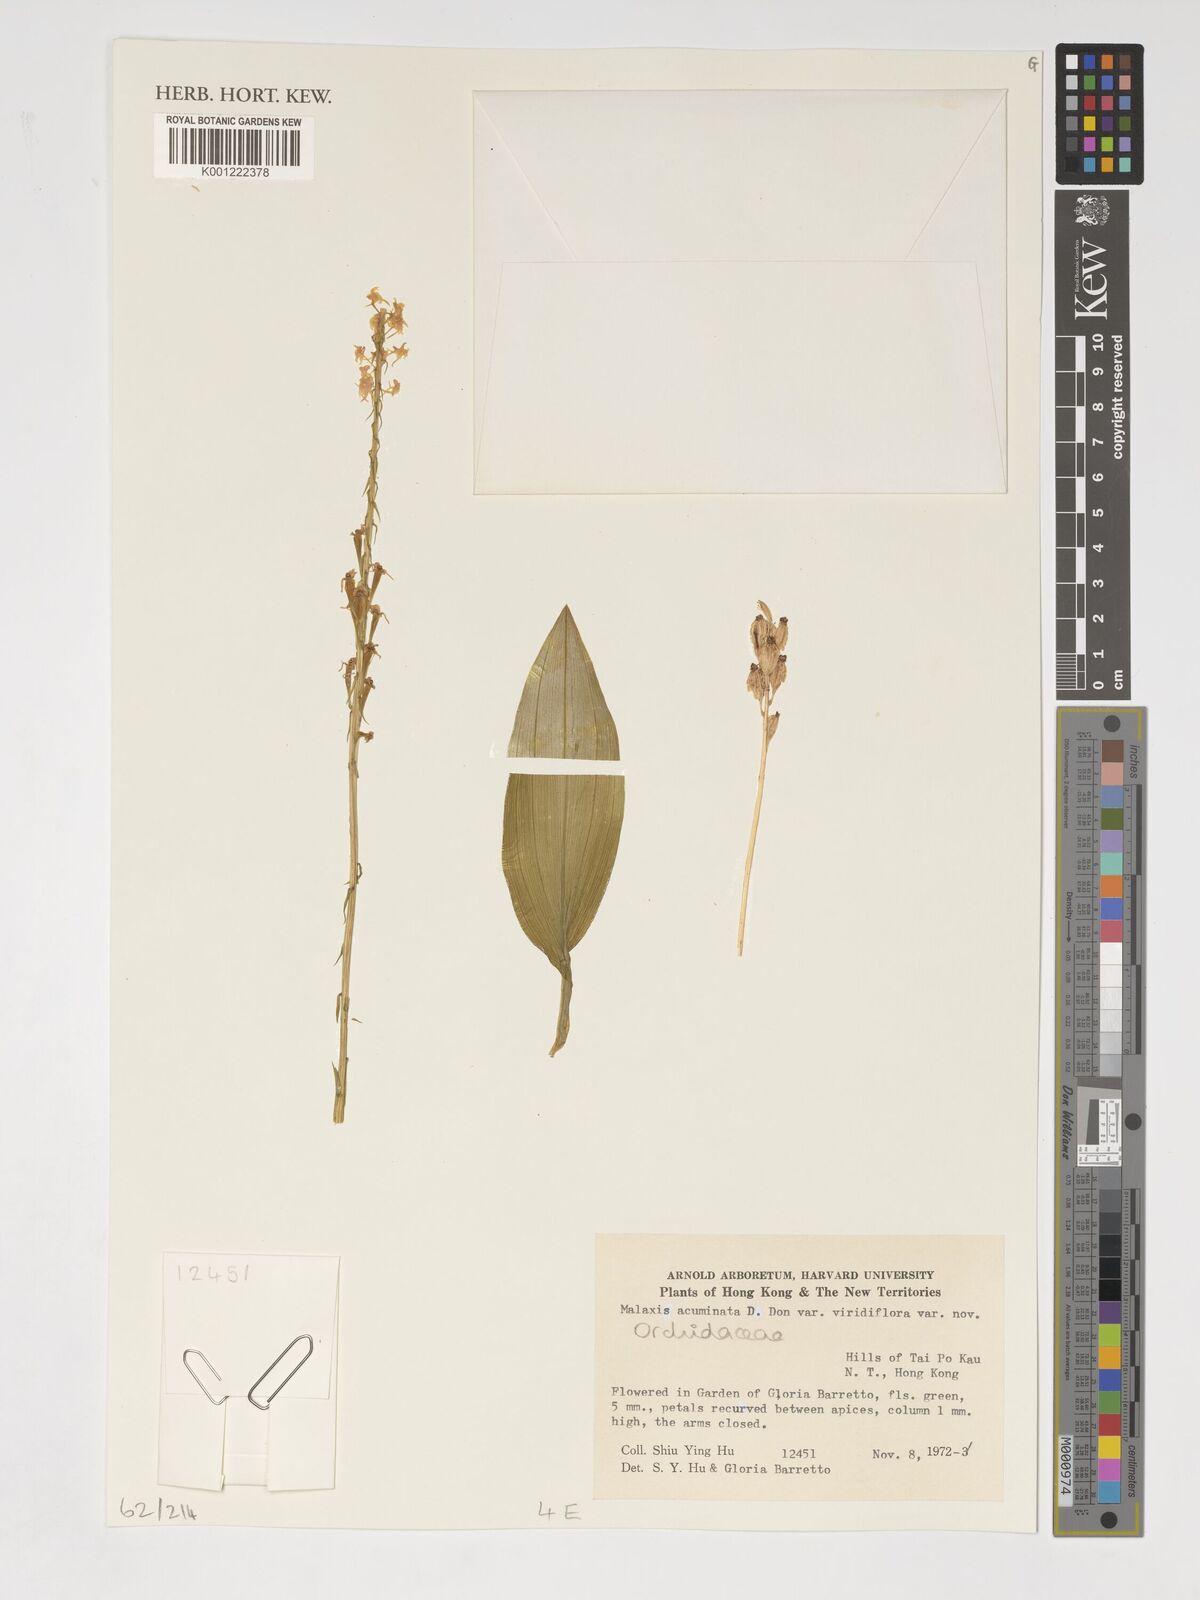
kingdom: Plantae
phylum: Tracheophyta
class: Liliopsida
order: Asparagales
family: Orchidaceae
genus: Crepidium
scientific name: Crepidium acuminatum
